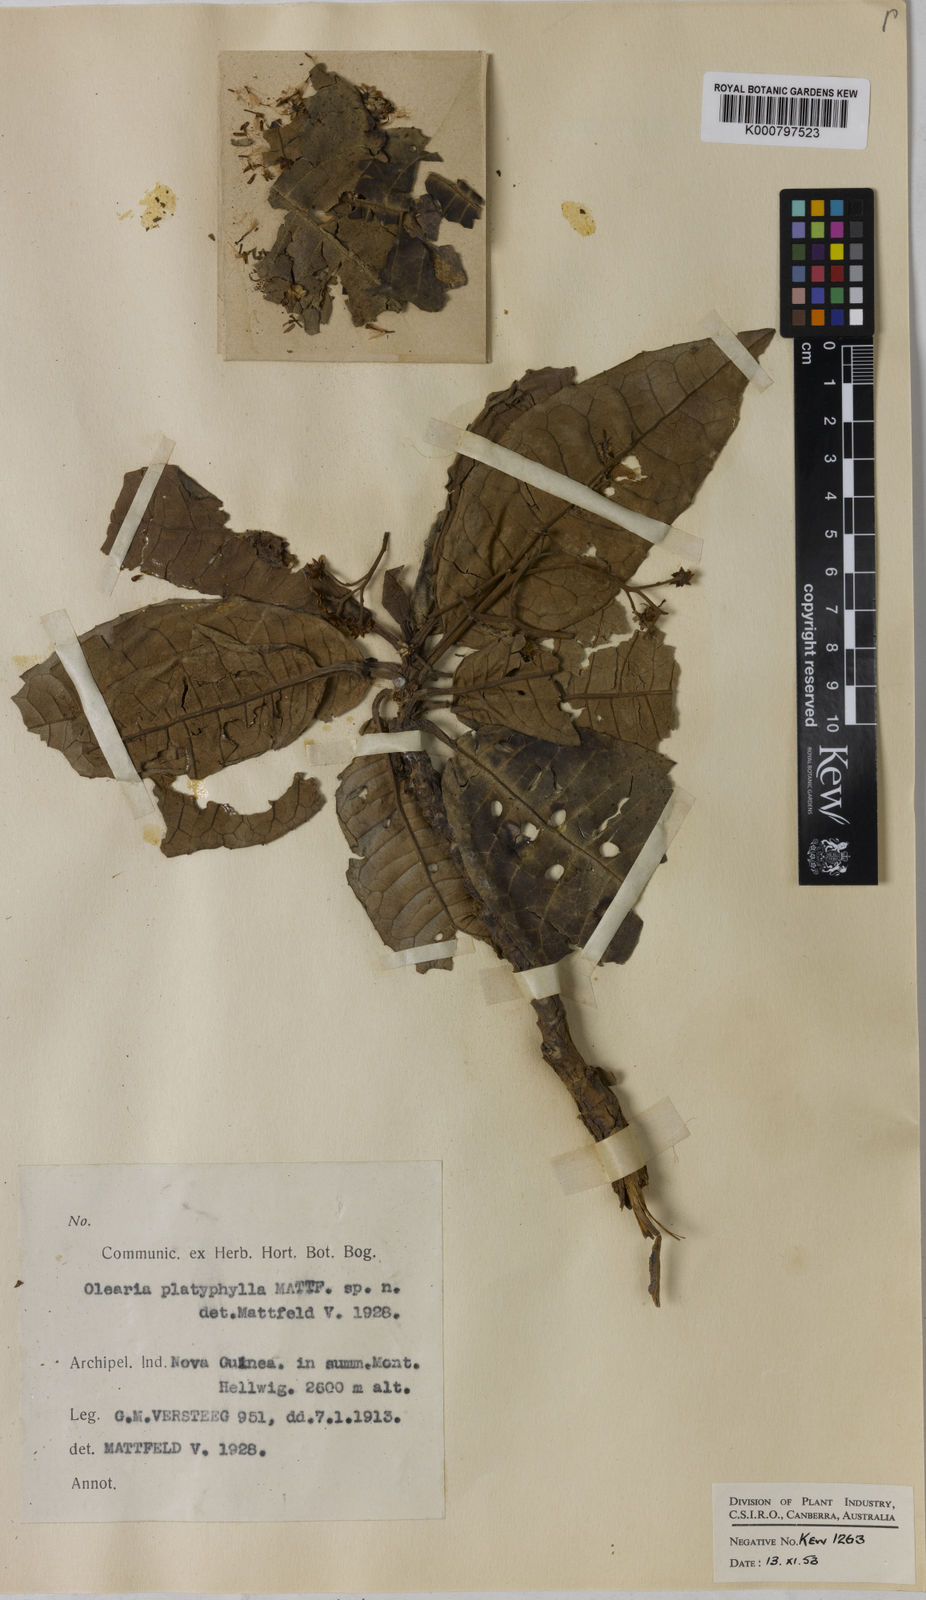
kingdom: Plantae
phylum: Tracheophyta
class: Magnoliopsida
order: Asterales
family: Asteraceae
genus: Olearia
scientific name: Olearia platyphylla
